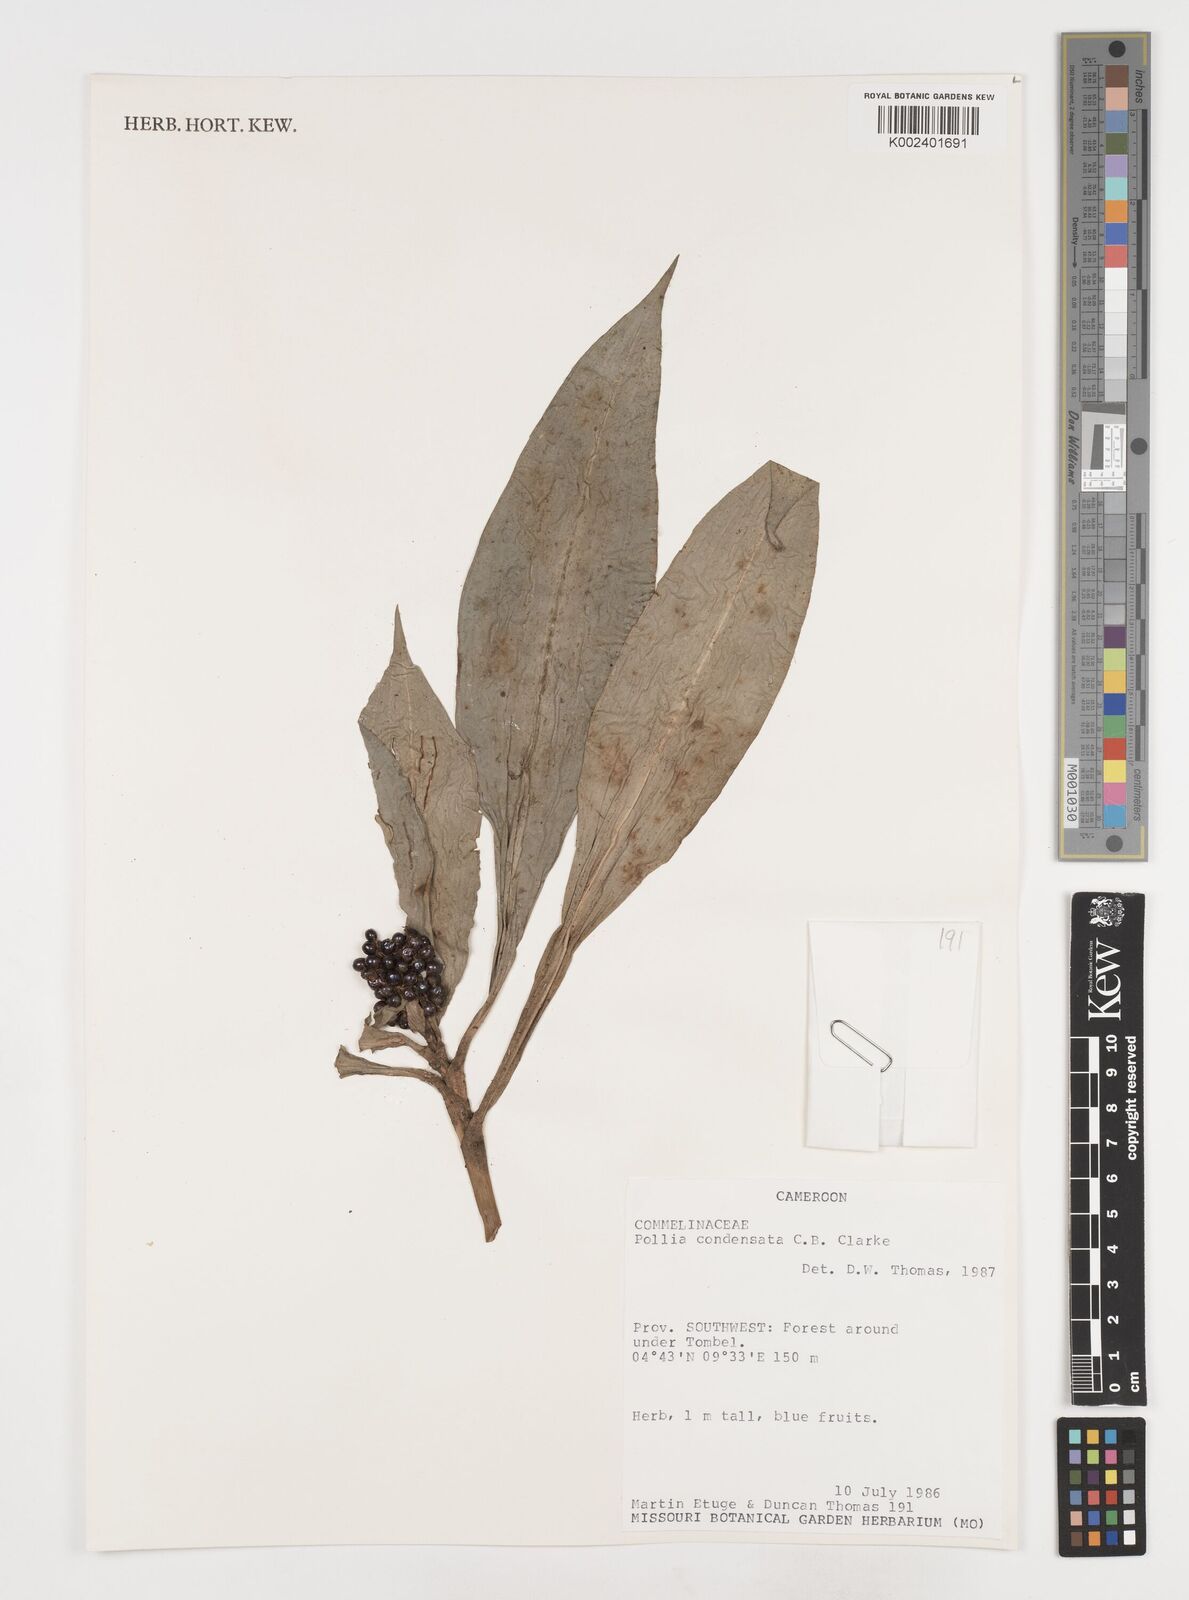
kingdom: Plantae
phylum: Tracheophyta
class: Liliopsida
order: Commelinales
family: Commelinaceae
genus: Pollia
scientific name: Pollia condensata
